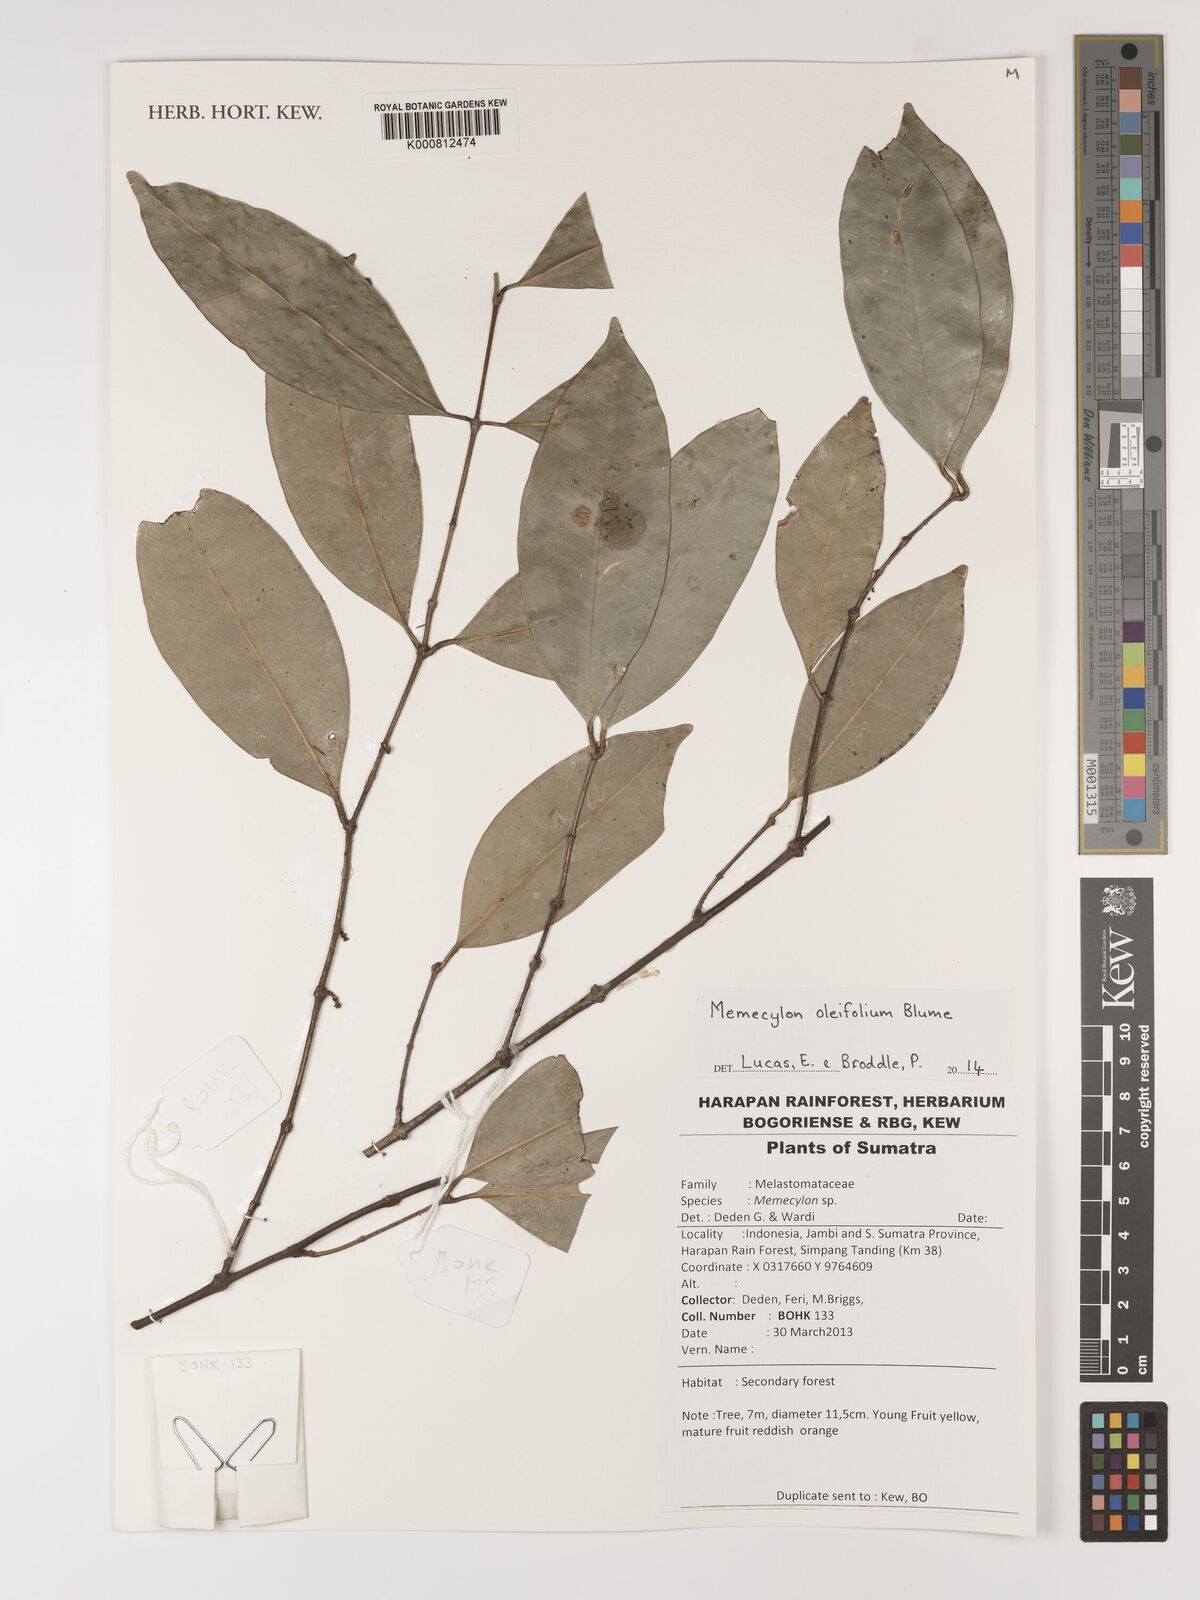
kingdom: Plantae
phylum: Tracheophyta
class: Magnoliopsida
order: Myrtales
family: Melastomataceae
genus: Memecylon
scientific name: Memecylon oleifolium
